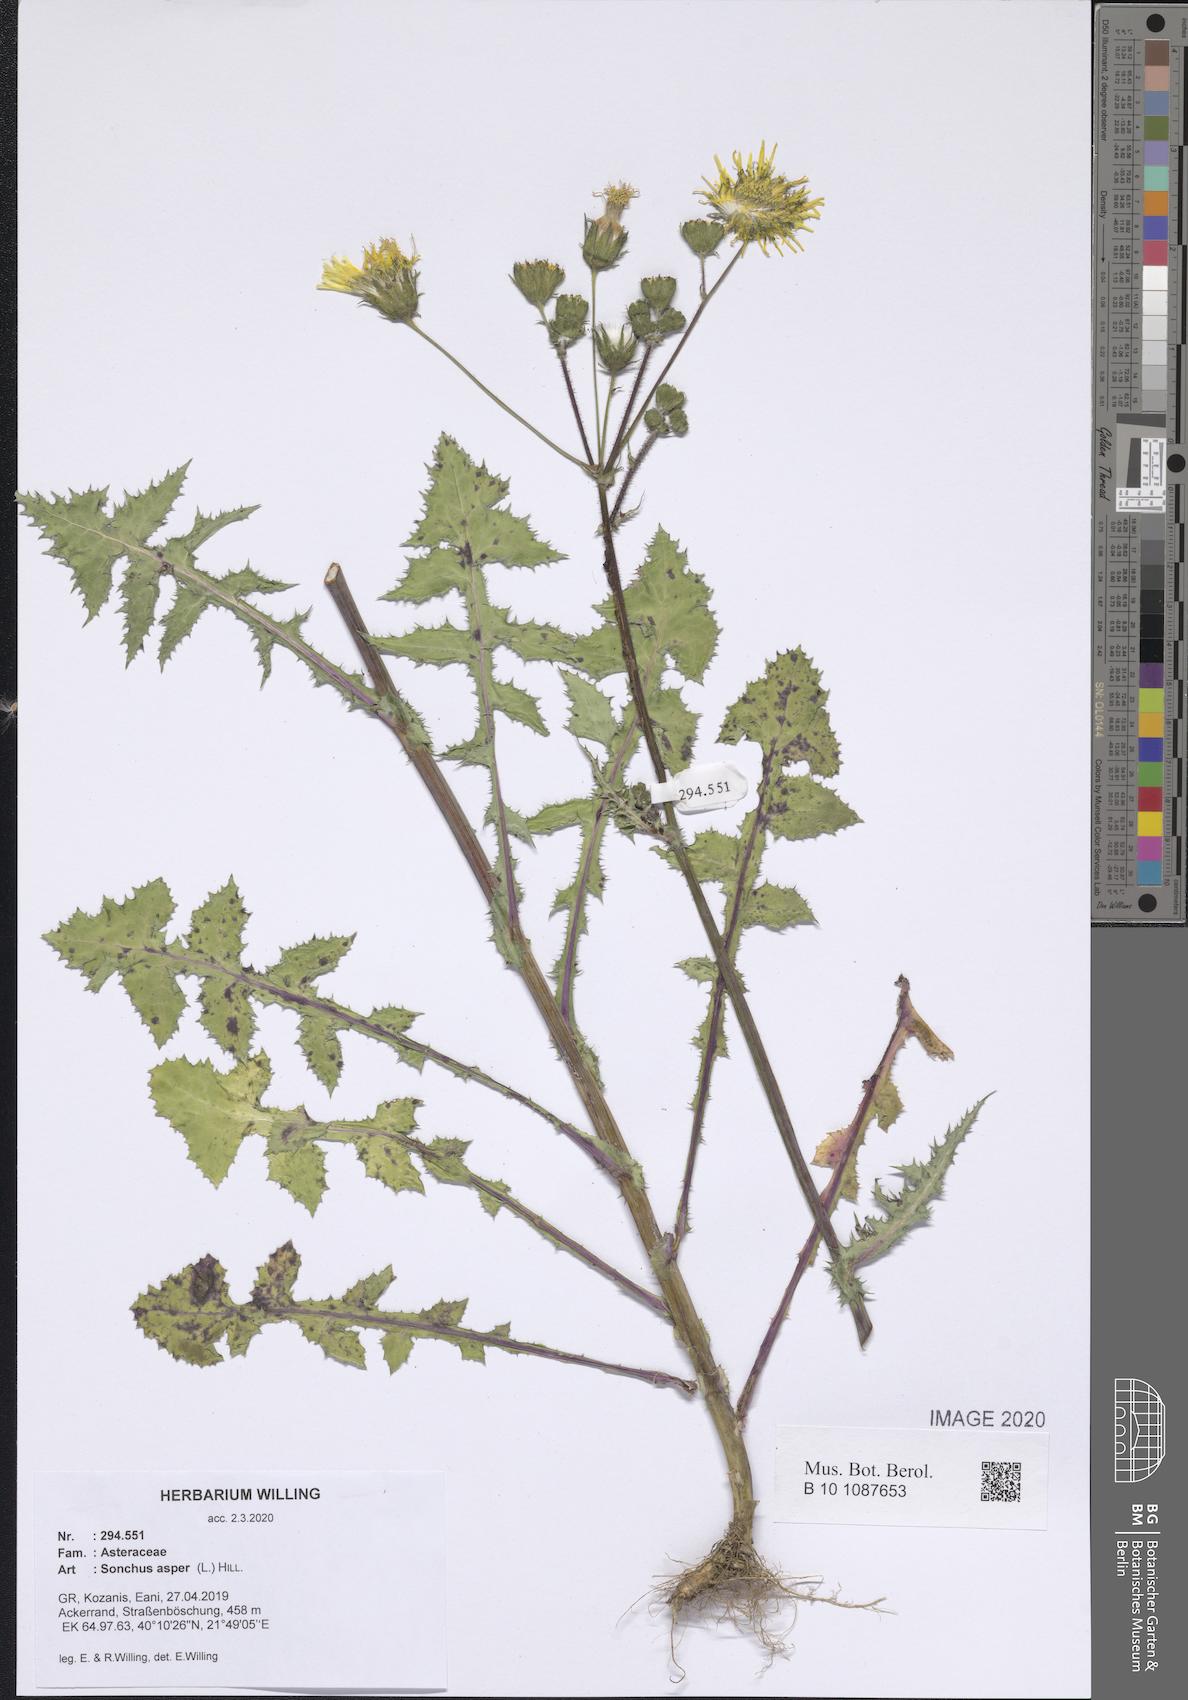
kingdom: Plantae
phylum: Tracheophyta
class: Magnoliopsida
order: Asterales
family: Asteraceae
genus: Sonchus
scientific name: Sonchus asper
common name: Prickly sow-thistle
